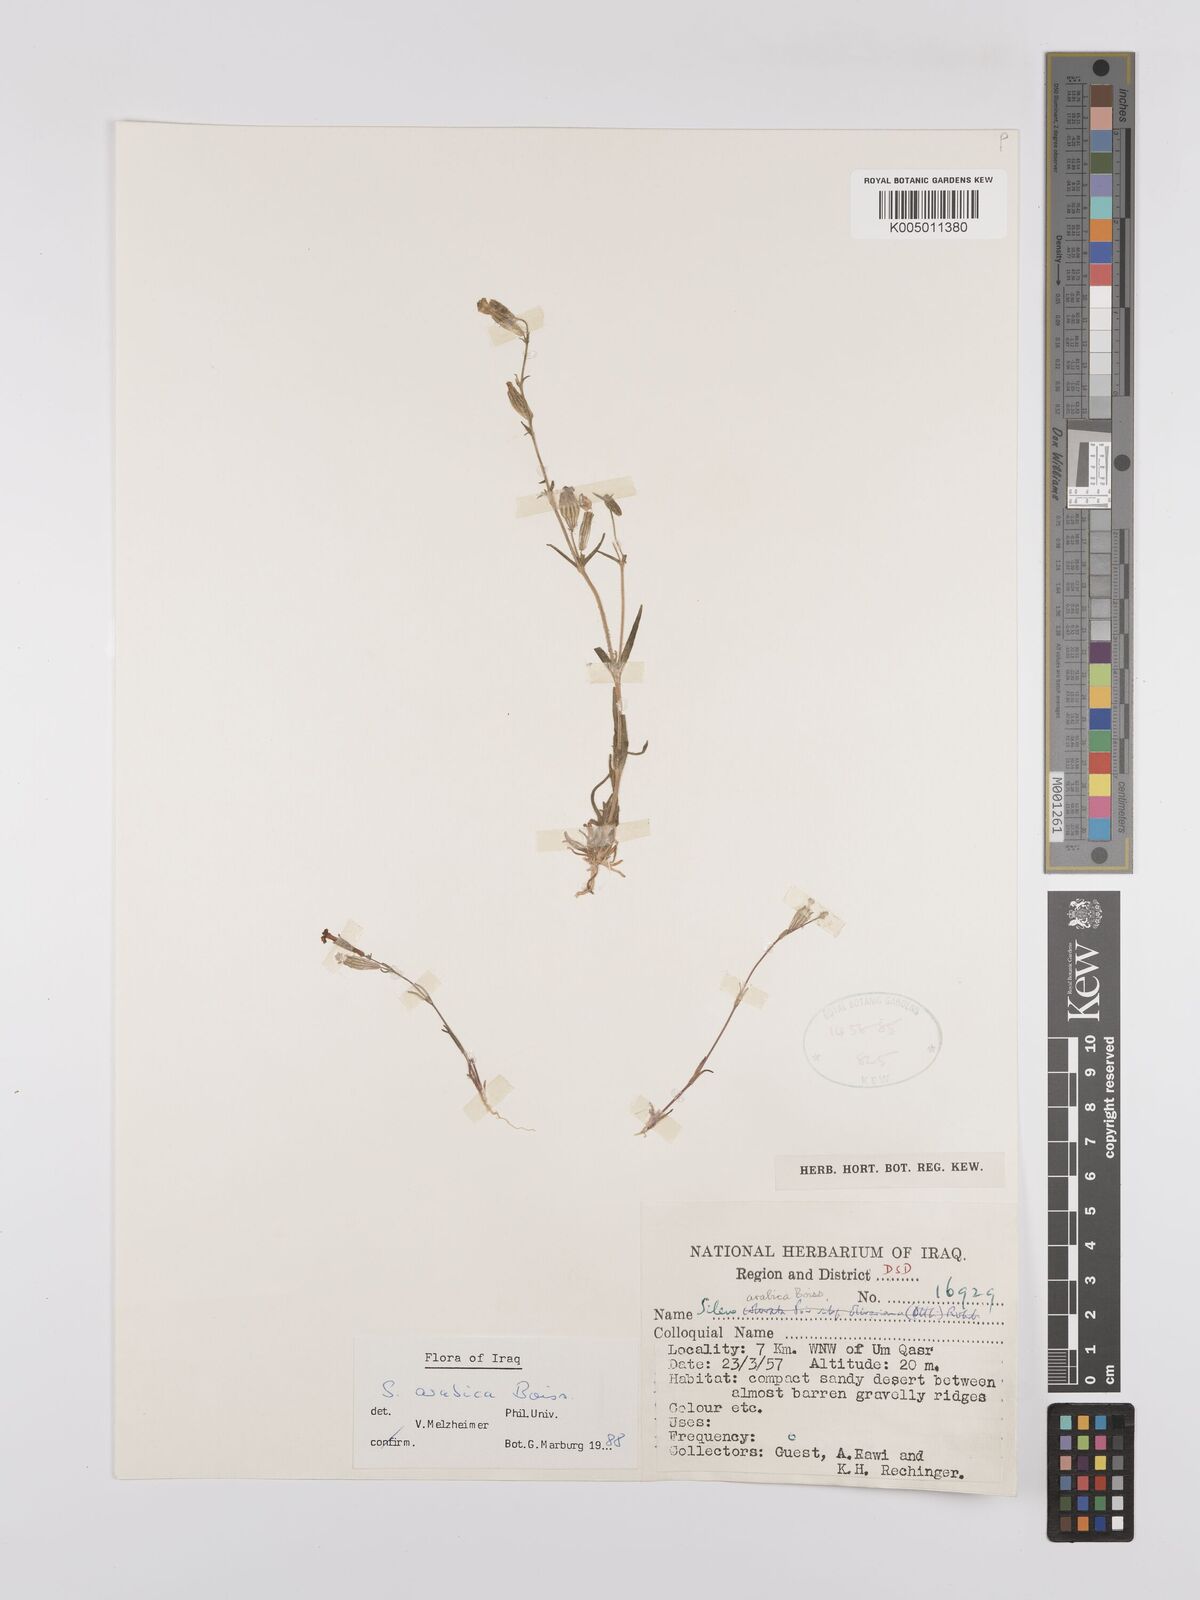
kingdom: Plantae
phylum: Tracheophyta
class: Magnoliopsida
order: Caryophyllales
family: Caryophyllaceae
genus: Silene
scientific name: Silene arabica
